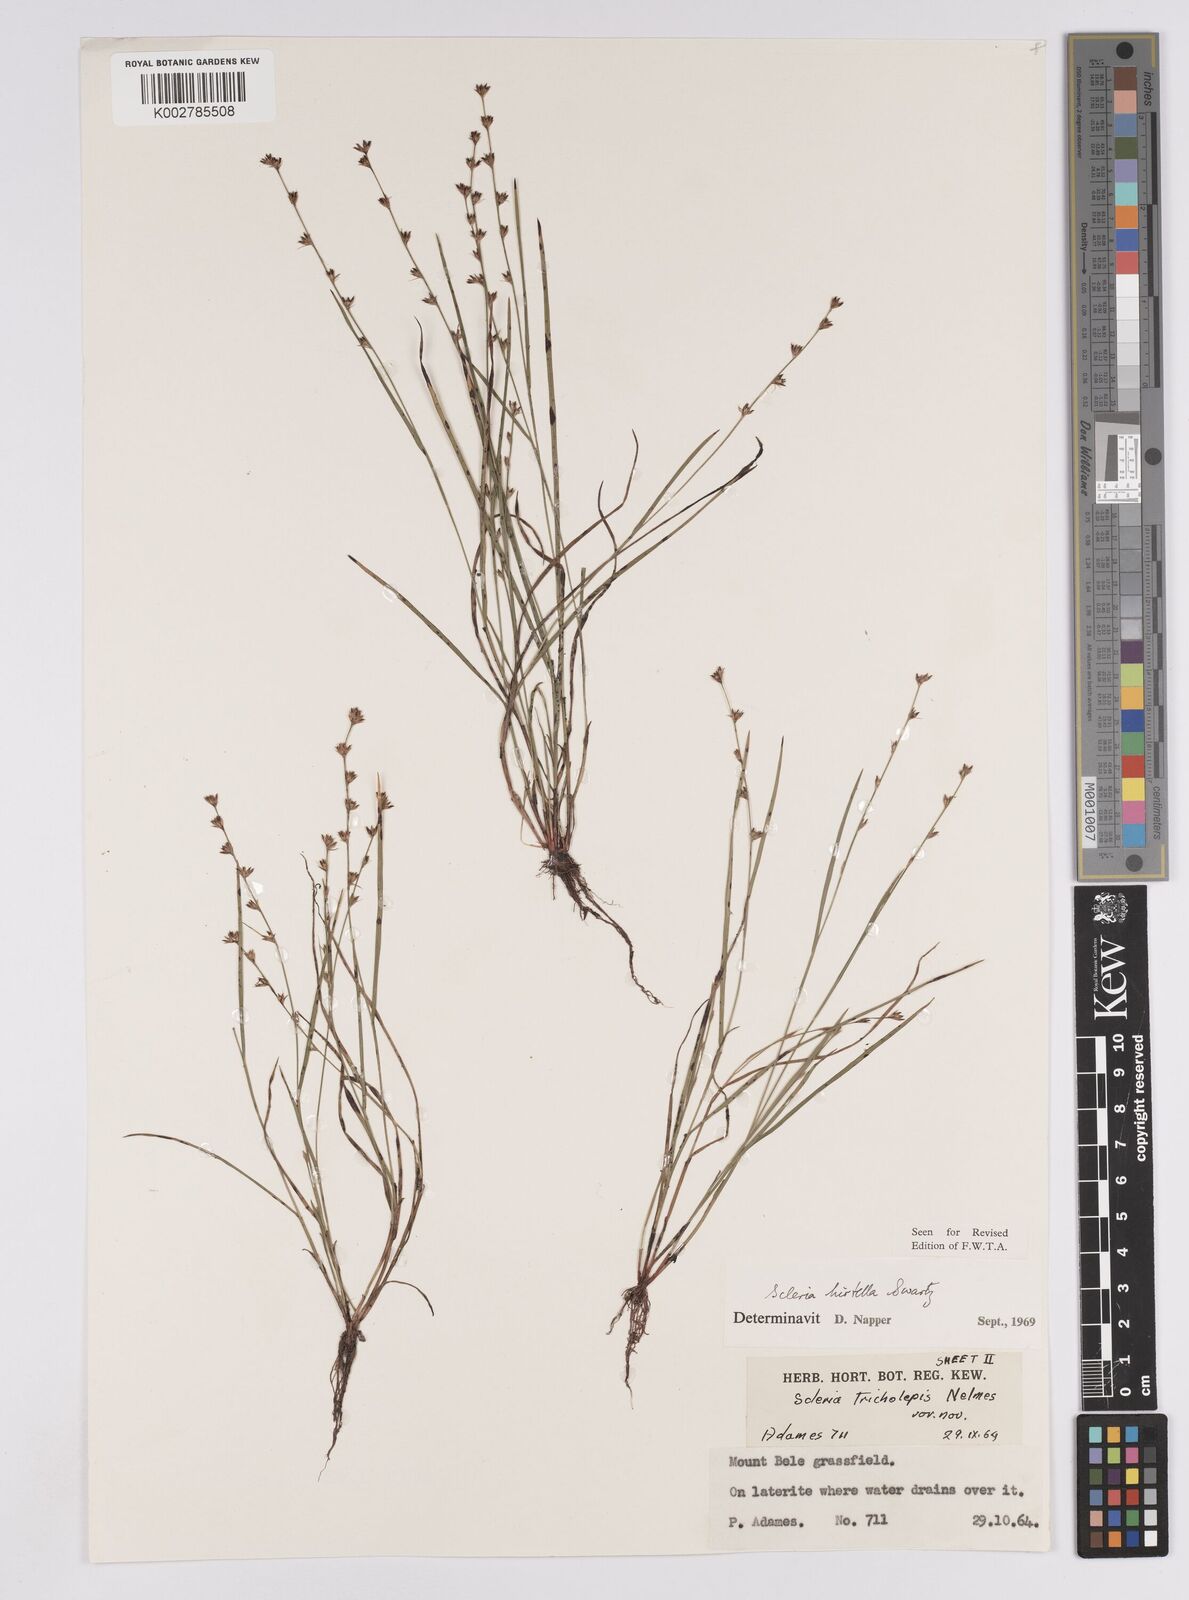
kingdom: Plantae
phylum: Tracheophyta
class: Liliopsida
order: Poales
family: Cyperaceae
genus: Scleria
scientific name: Scleria tricholepis
